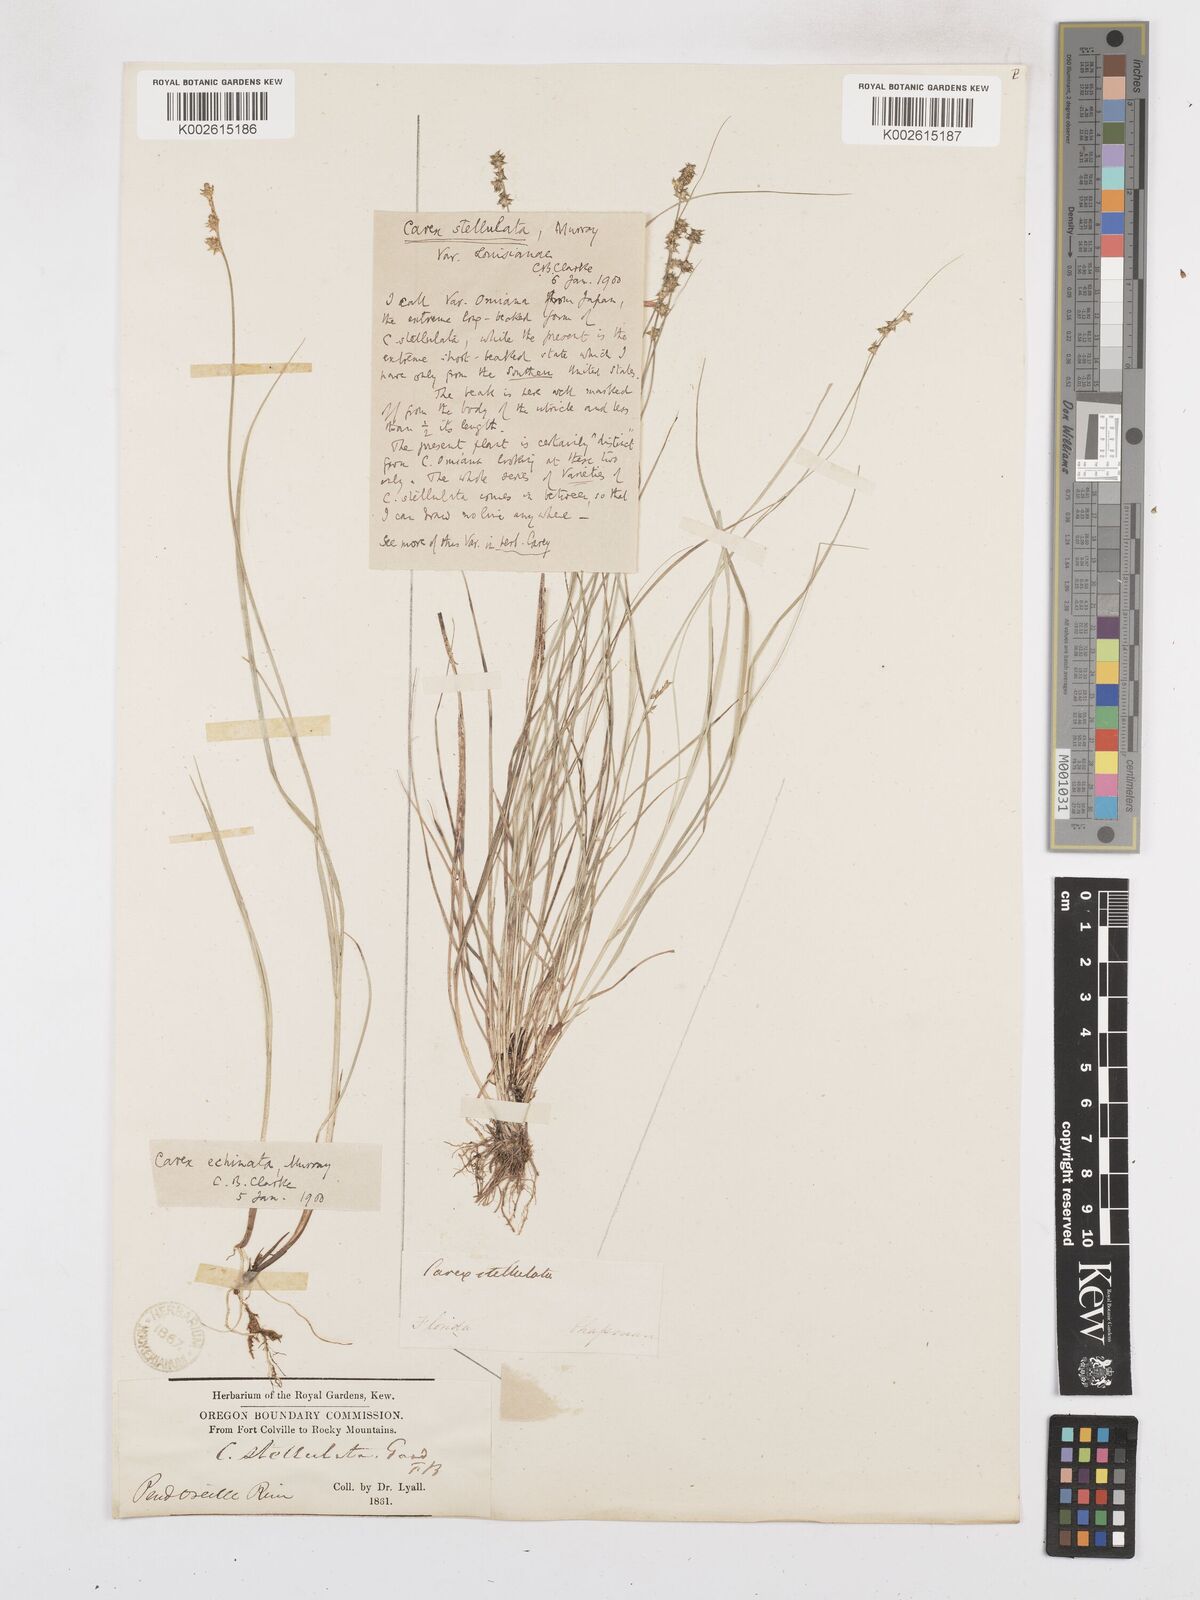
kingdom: Plantae
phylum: Tracheophyta
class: Liliopsida
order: Poales
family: Cyperaceae
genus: Carex
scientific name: Carex echinata
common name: Star sedge
